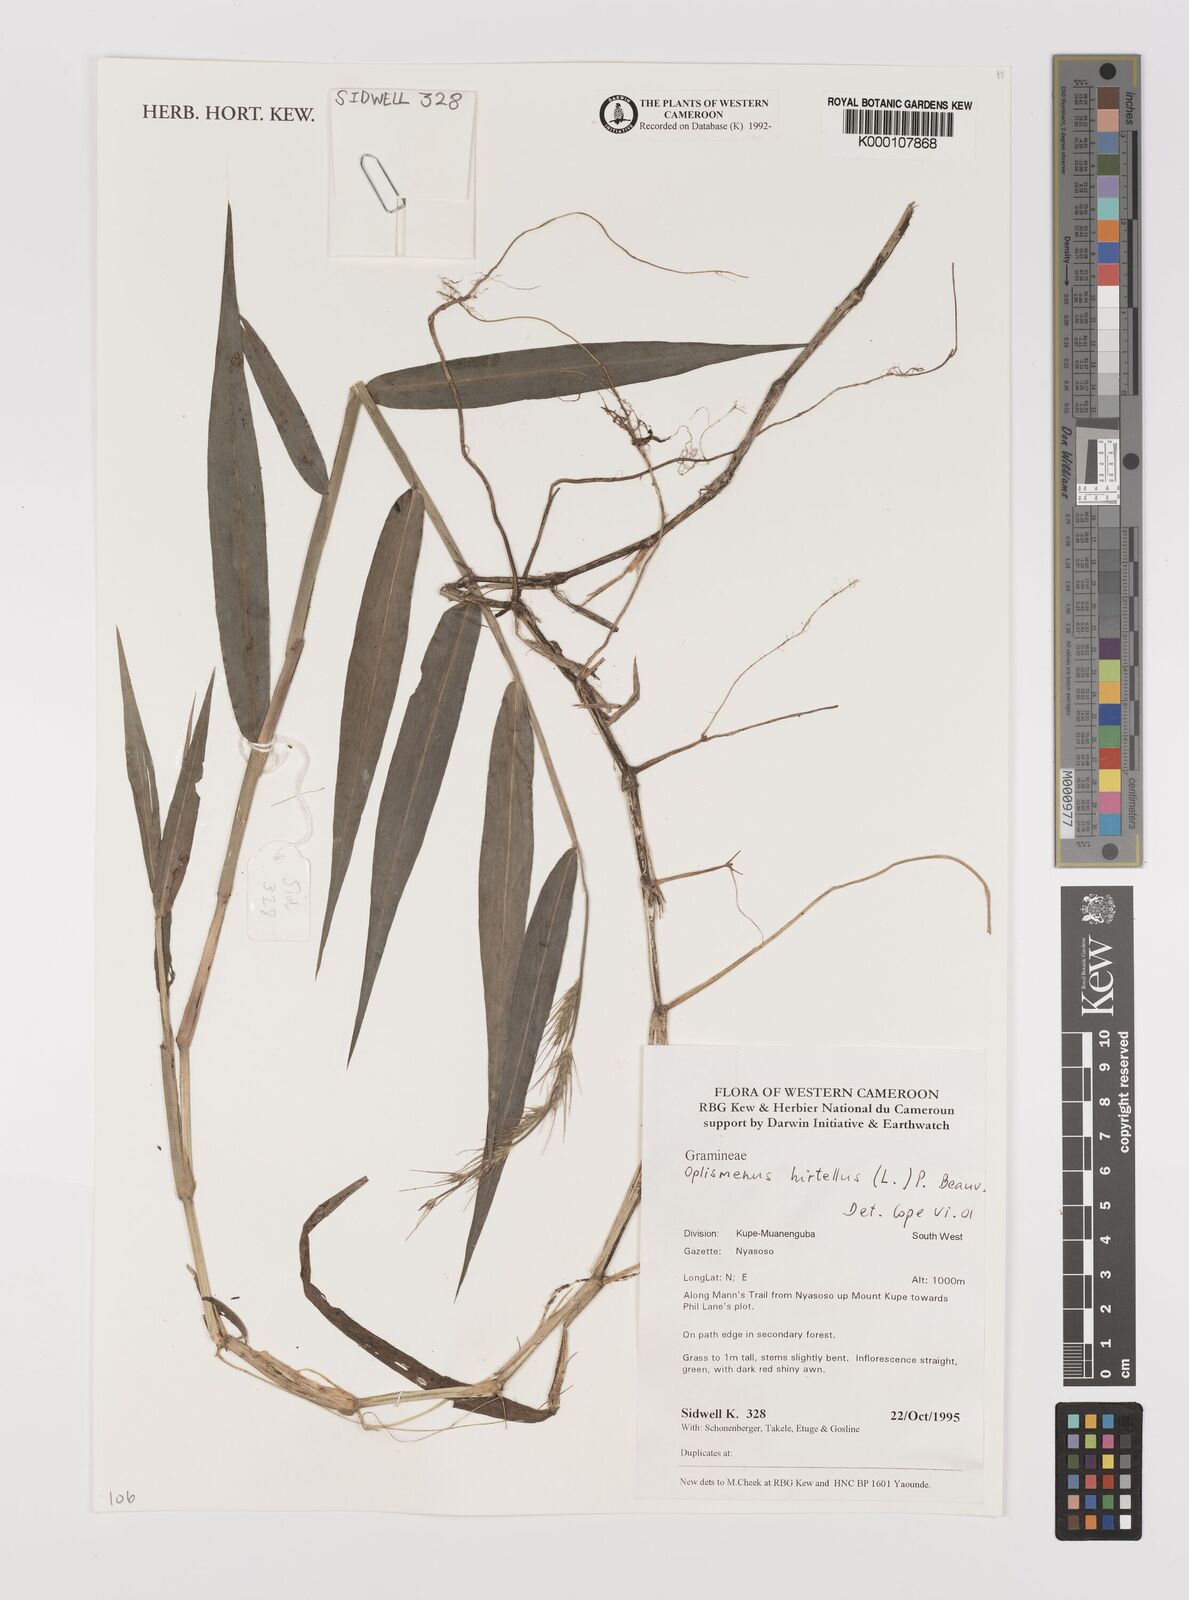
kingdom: Plantae
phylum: Tracheophyta
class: Liliopsida
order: Poales
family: Poaceae
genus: Oplismenus
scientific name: Oplismenus hirtellus
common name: Basketgrass
